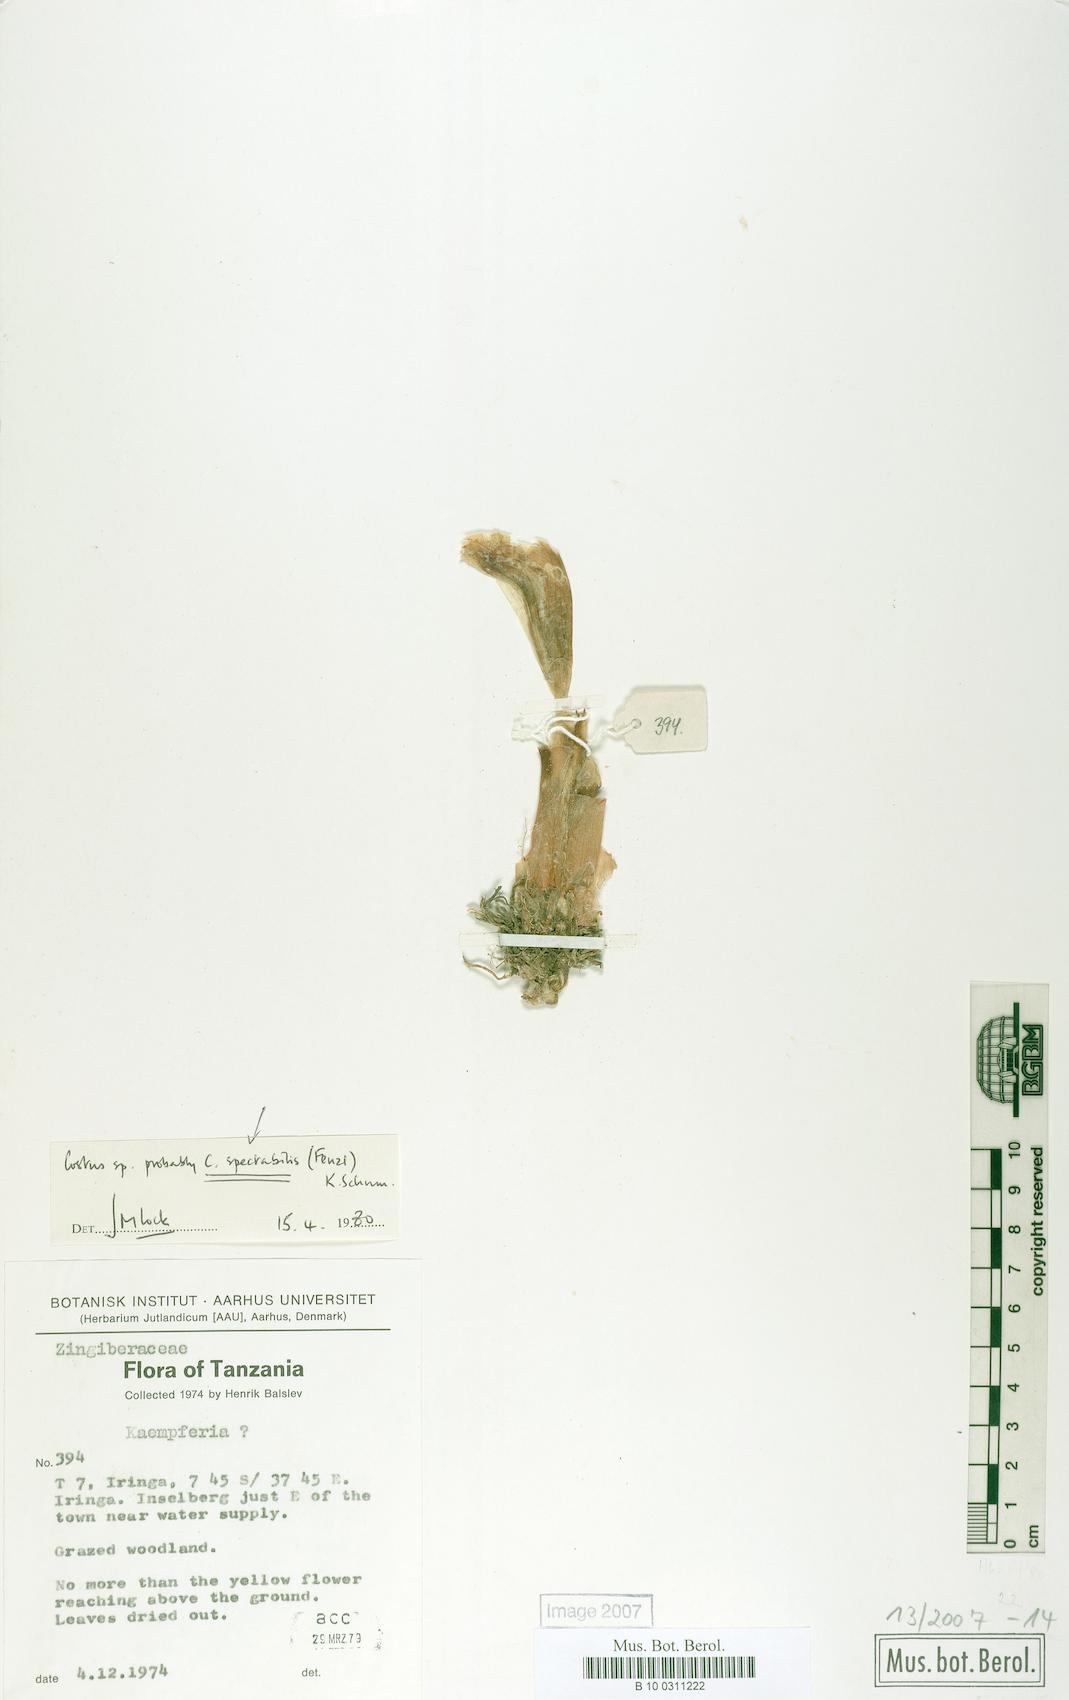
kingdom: Plantae
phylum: Tracheophyta
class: Liliopsida
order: Zingiberales
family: Costaceae
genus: Costus
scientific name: Costus macranthus
